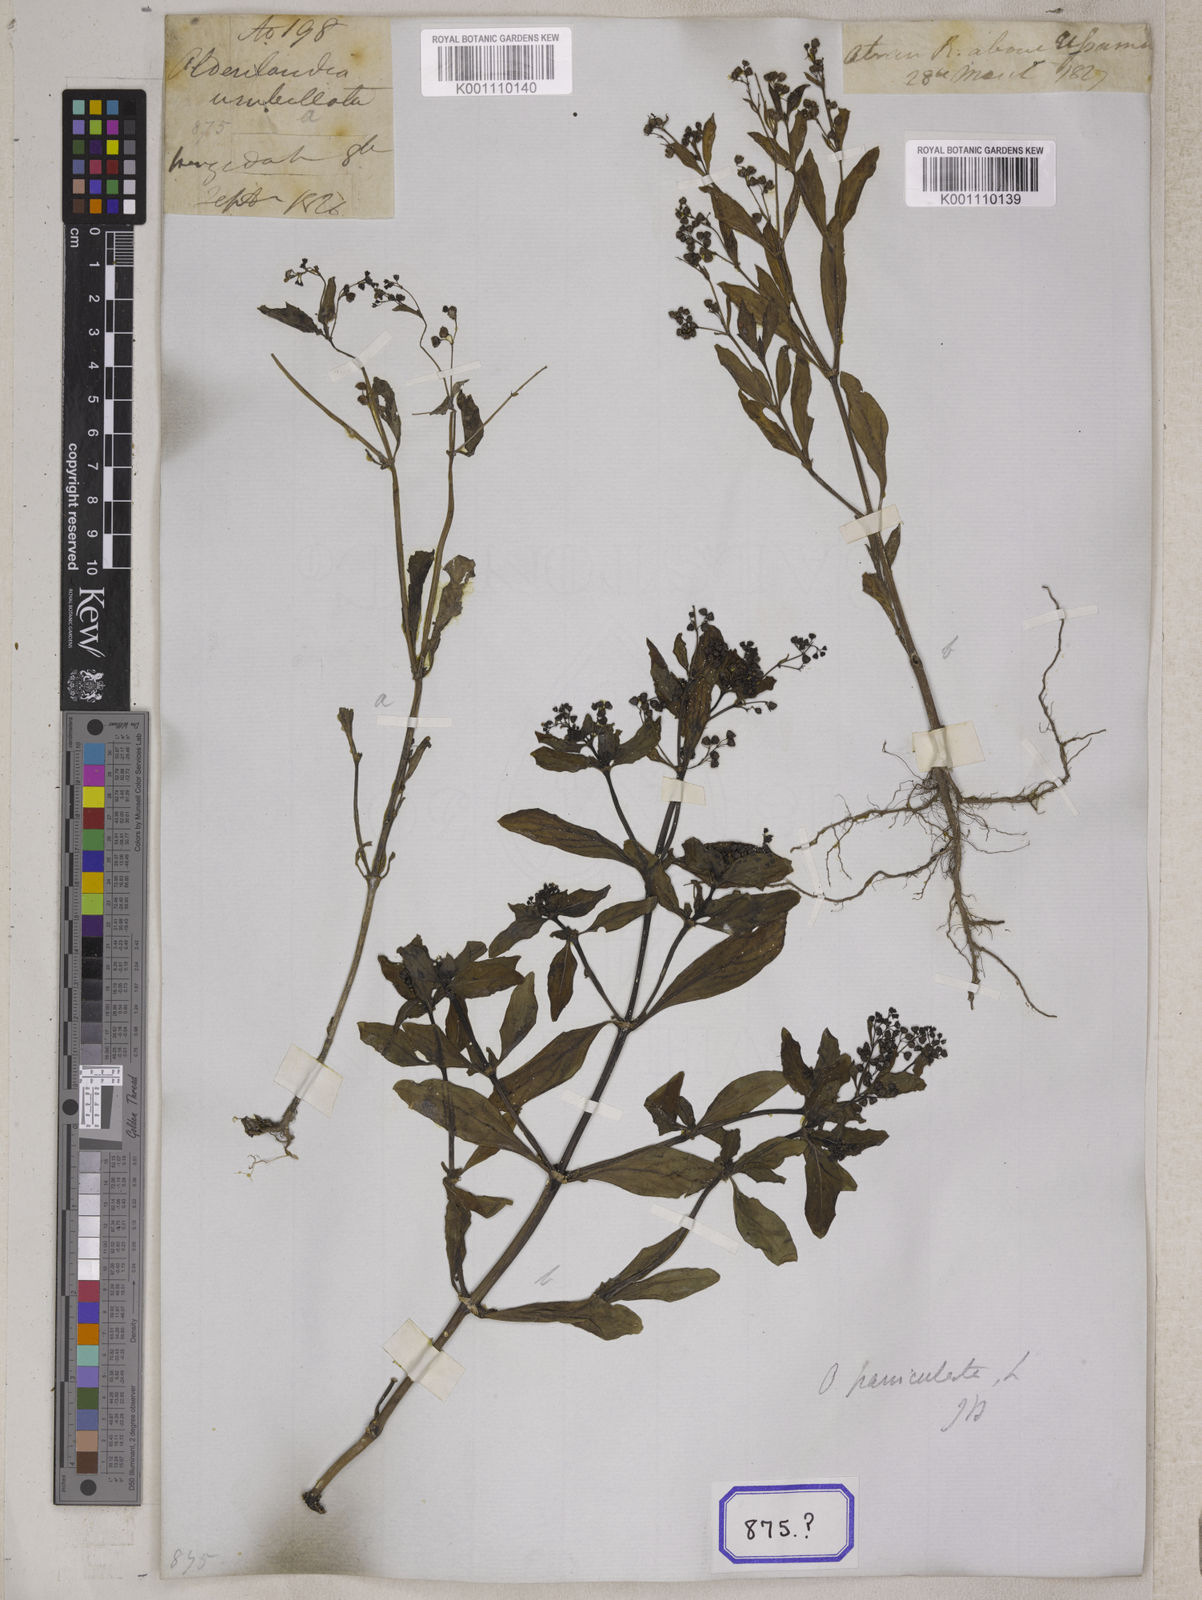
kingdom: Plantae
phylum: Tracheophyta
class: Magnoliopsida
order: Gentianales
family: Rubiaceae
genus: Leptopetalum
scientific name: Leptopetalum racemosum
